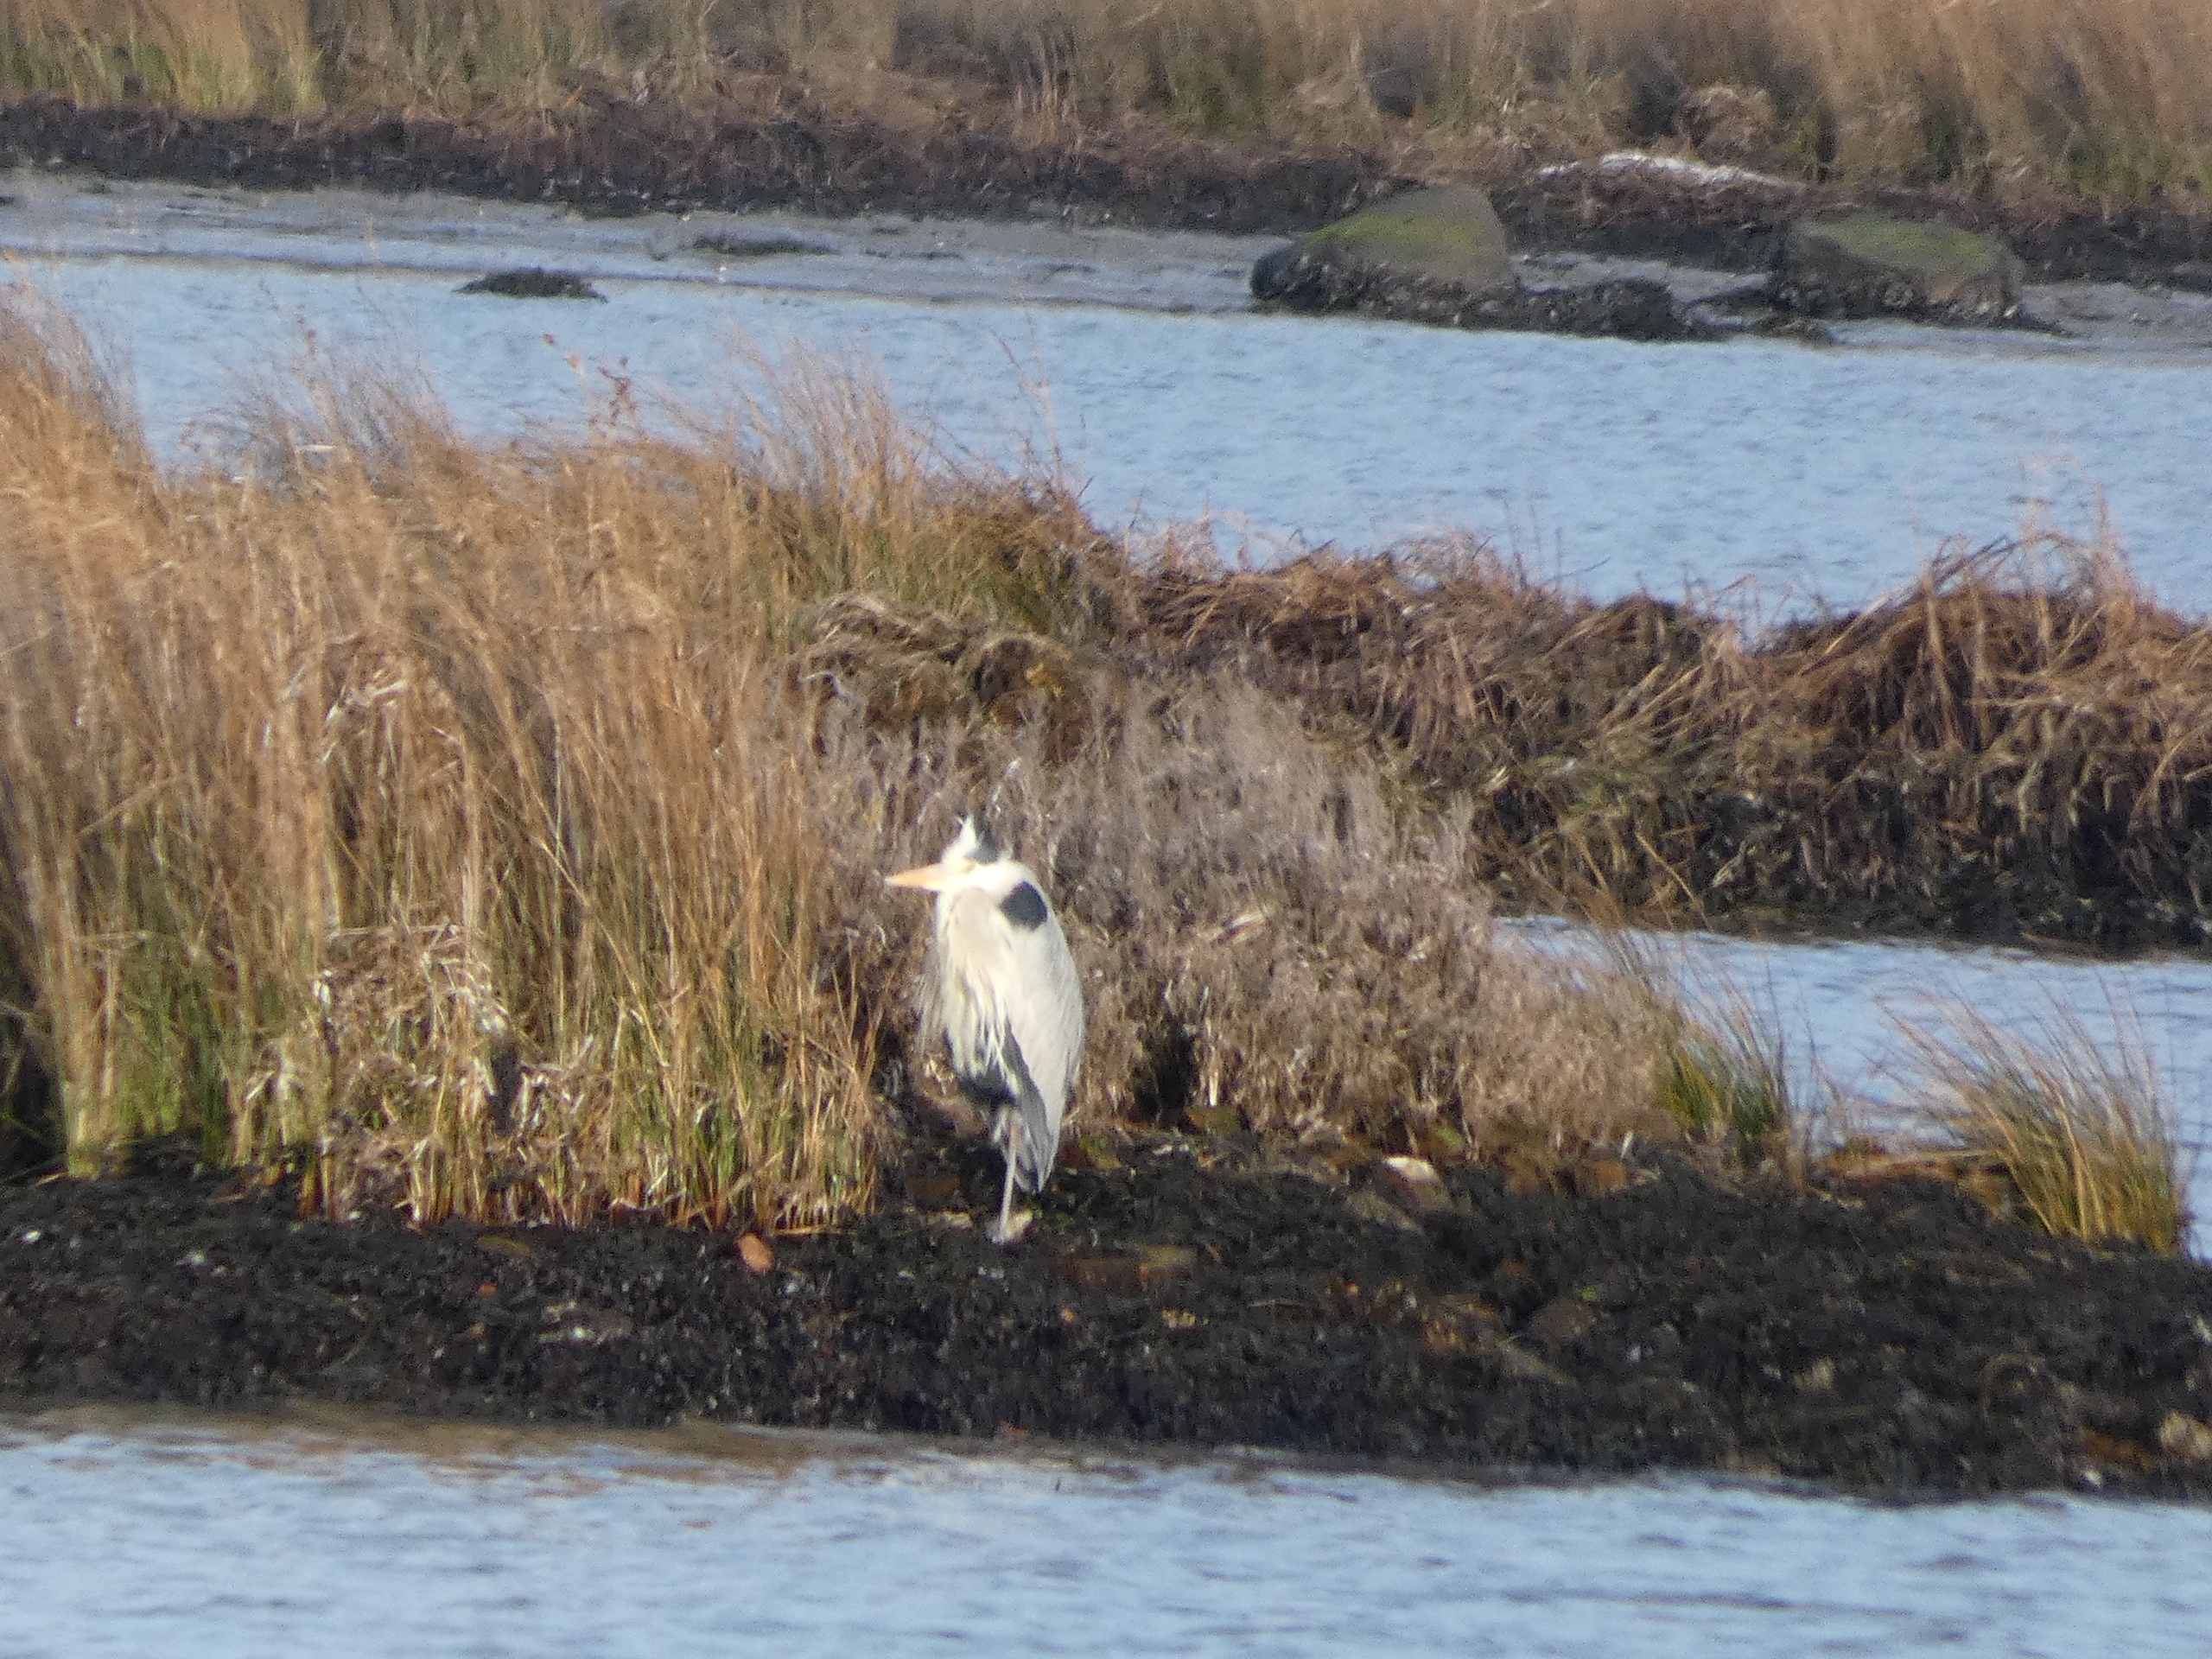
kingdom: Animalia
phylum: Chordata
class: Aves
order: Pelecaniformes
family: Ardeidae
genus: Ardea
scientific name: Ardea cinerea
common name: Fiskehejre
